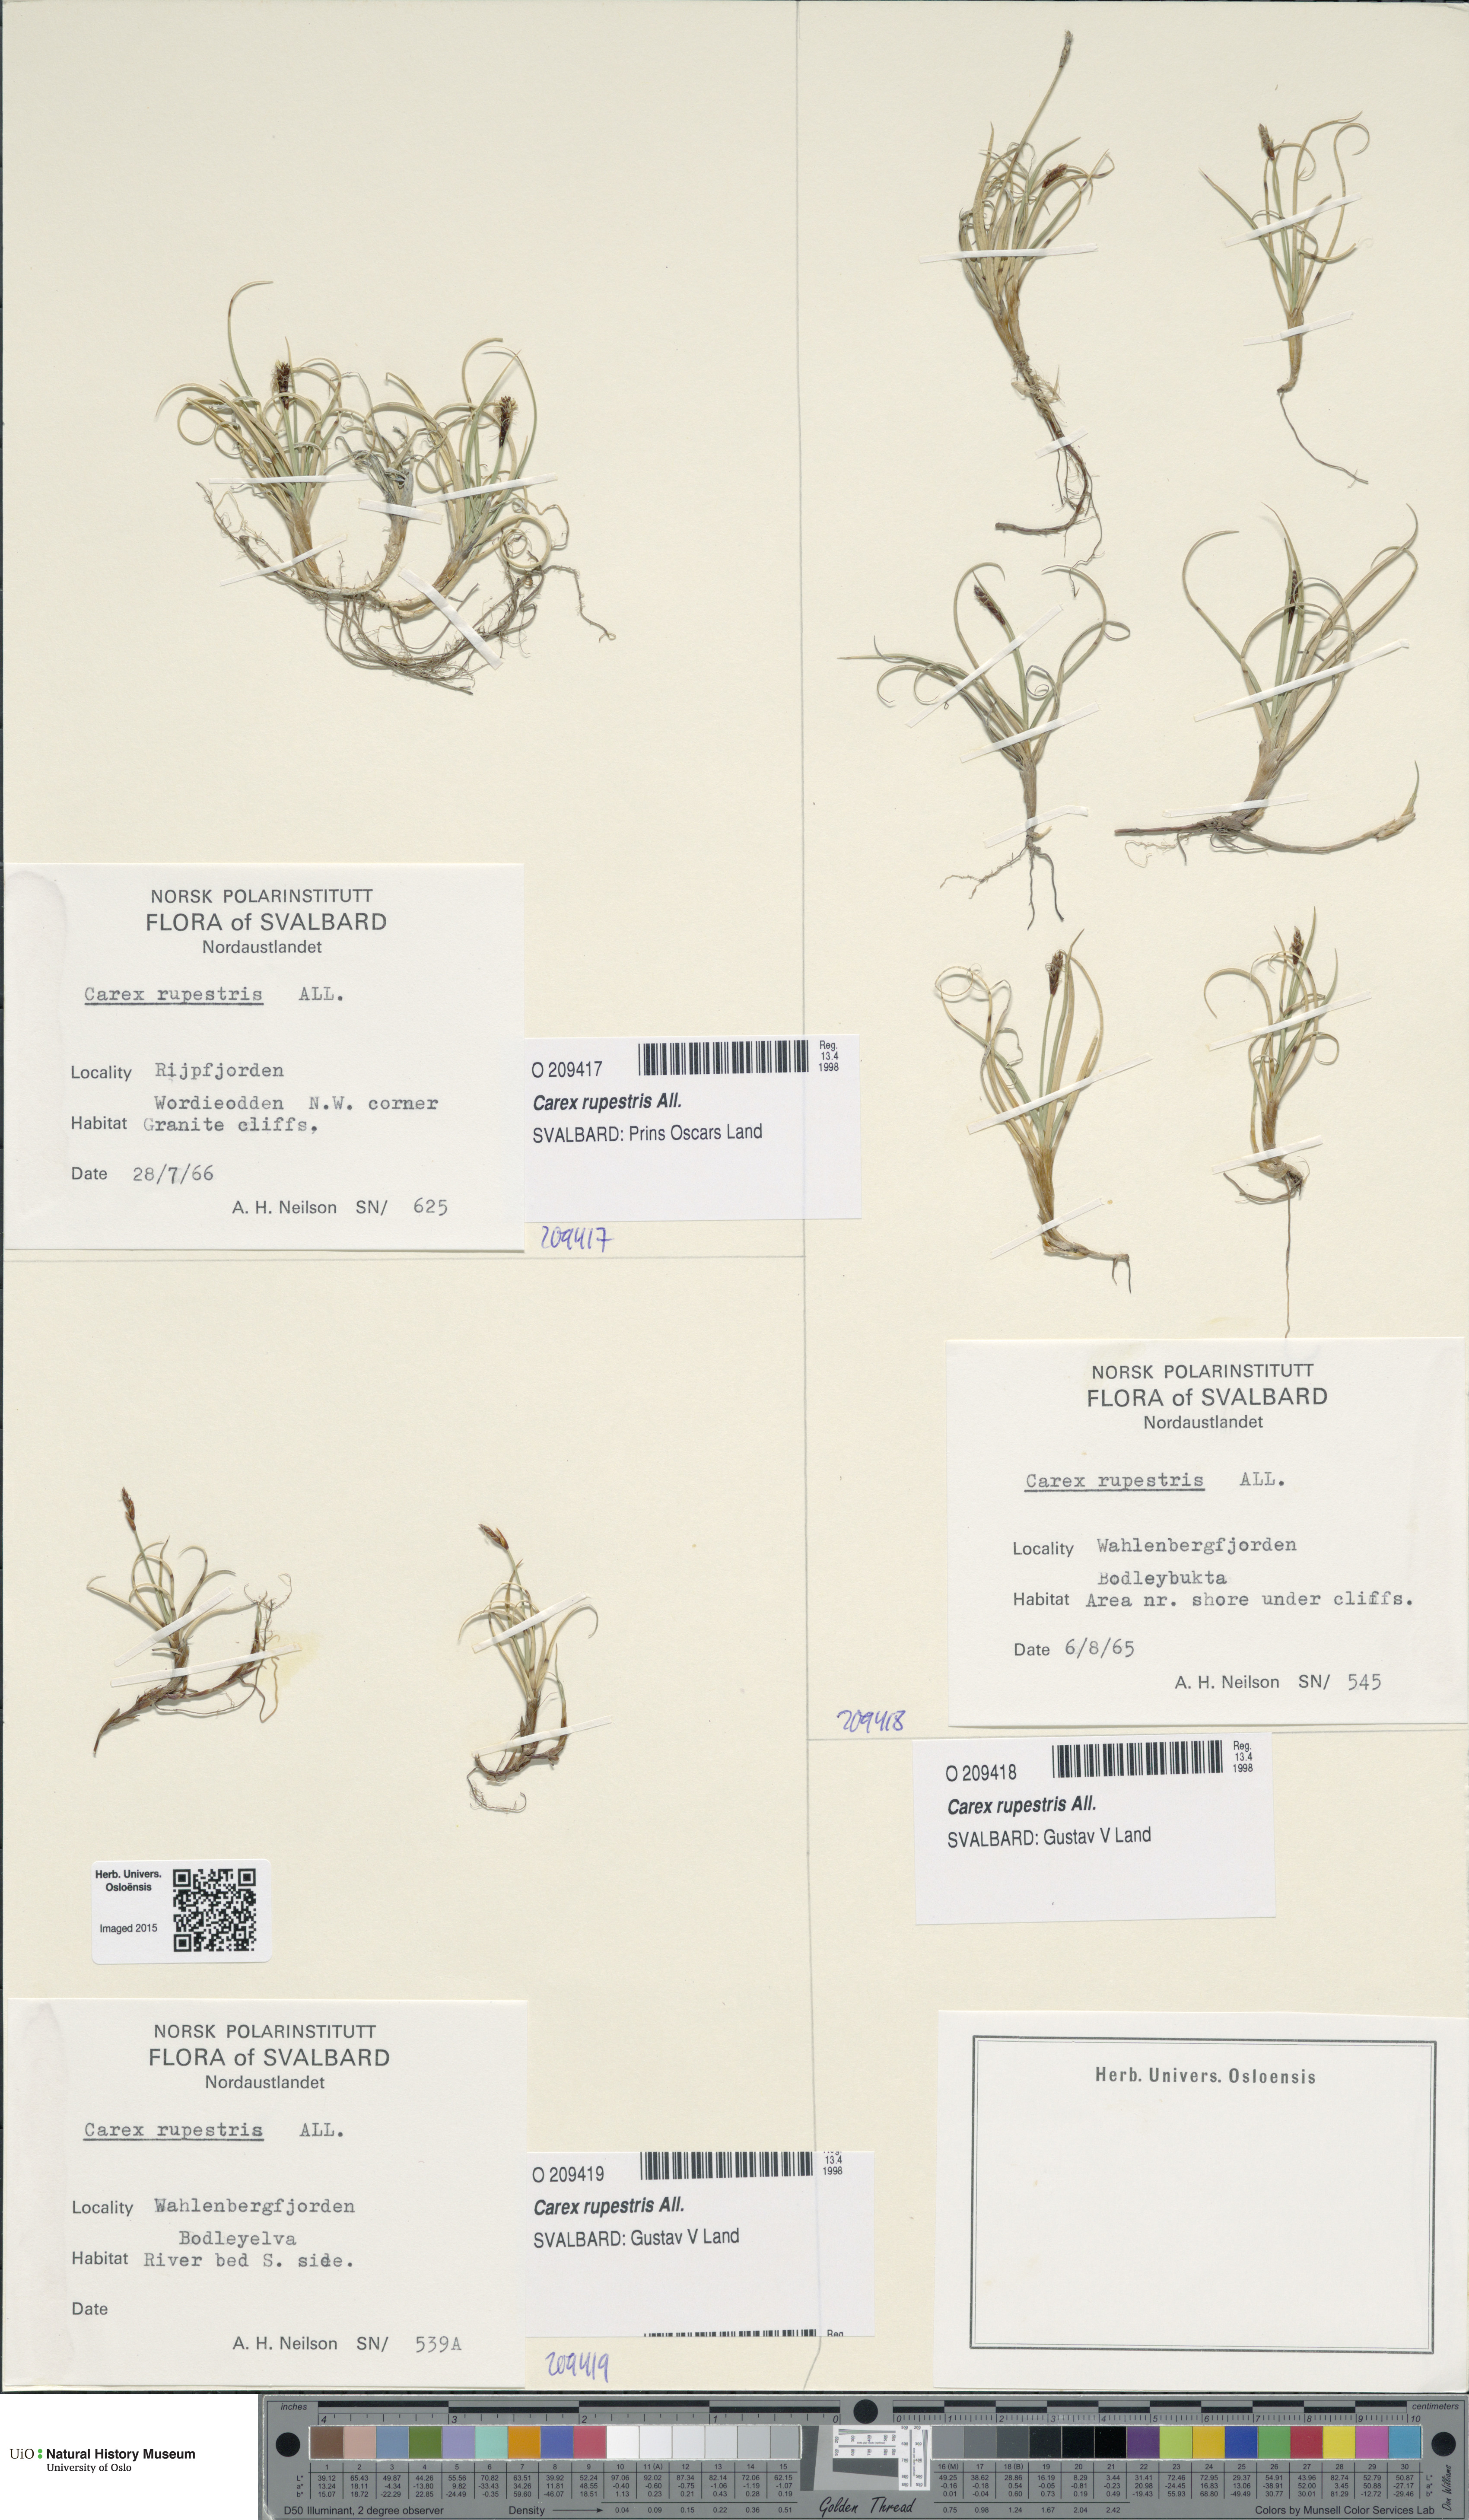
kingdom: Plantae
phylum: Tracheophyta
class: Liliopsida
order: Poales
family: Cyperaceae
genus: Carex
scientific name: Carex rupestris
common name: Rock sedge
